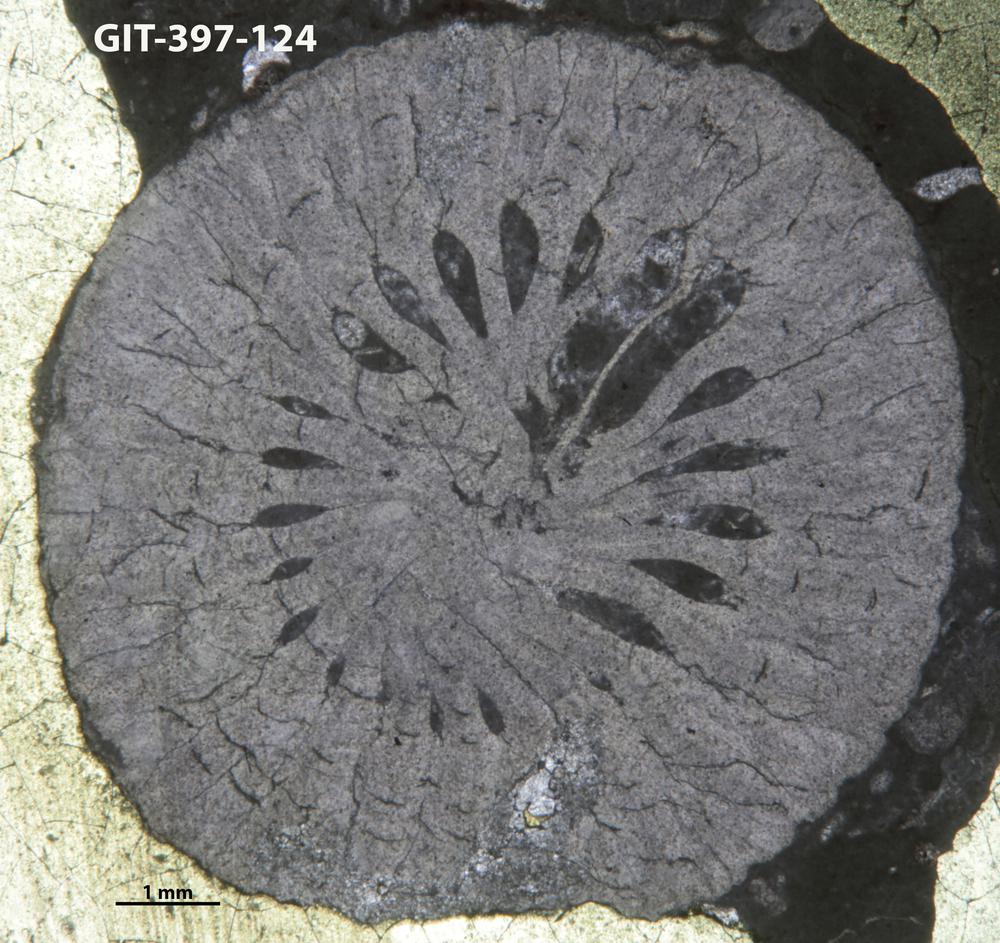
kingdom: Animalia
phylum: Cnidaria
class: Anthozoa
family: Lykophyllidae
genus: Pycnactis
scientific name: Pycnactis
